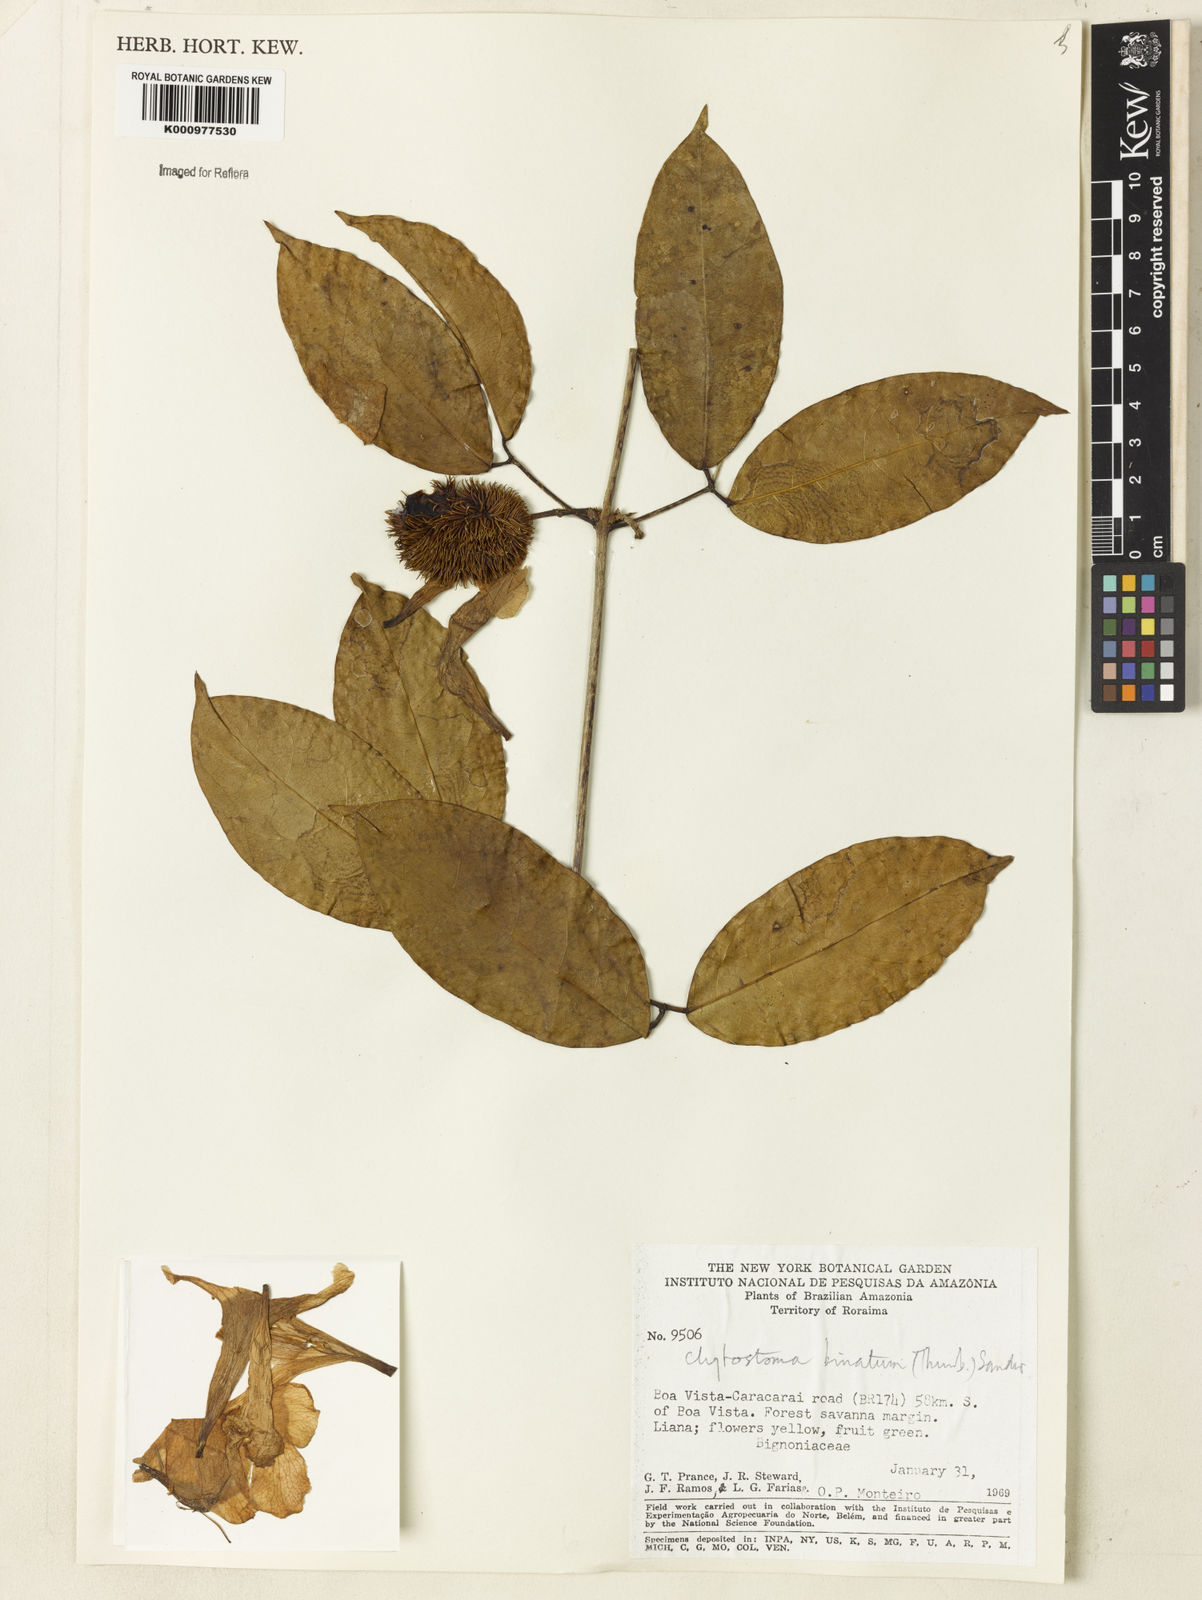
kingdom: Plantae
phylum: Tracheophyta
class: Magnoliopsida
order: Lamiales
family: Bignoniaceae
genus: Bignonia
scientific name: Bignonia binata
